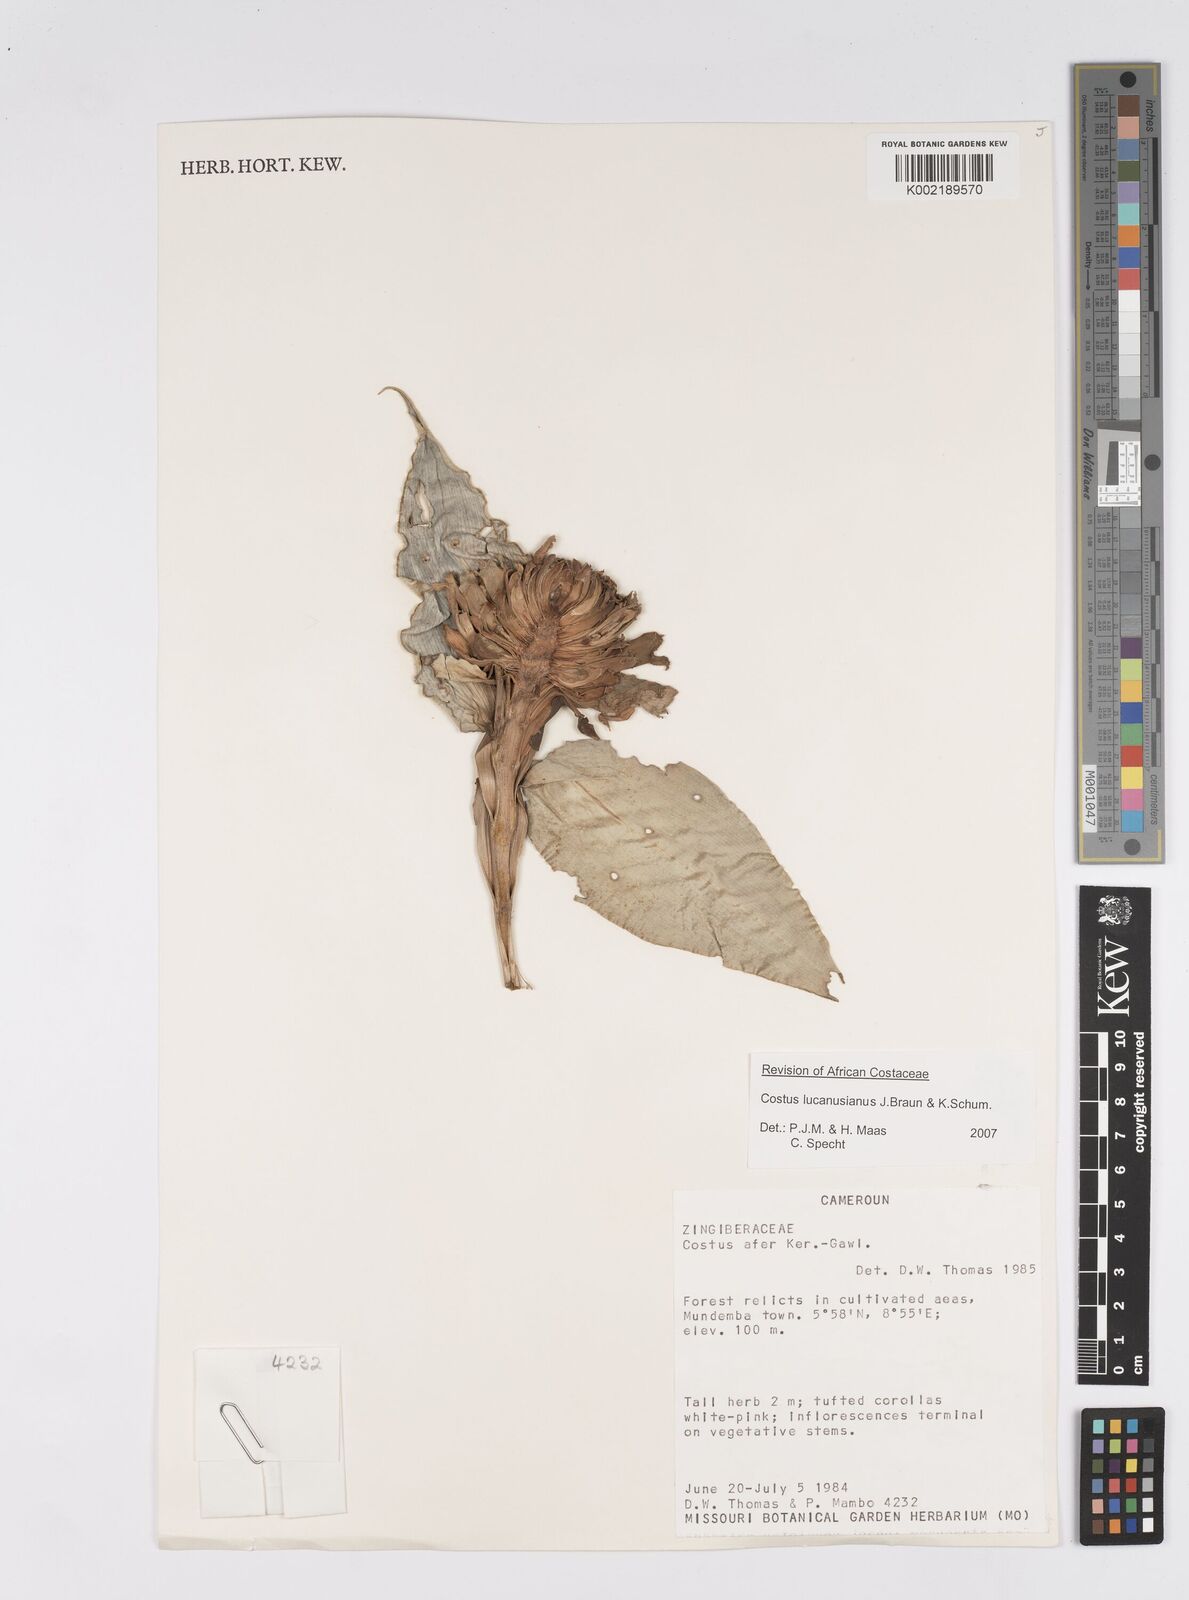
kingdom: Plantae
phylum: Tracheophyta
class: Liliopsida
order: Zingiberales
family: Costaceae
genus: Costus
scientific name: Costus lucanusianus
